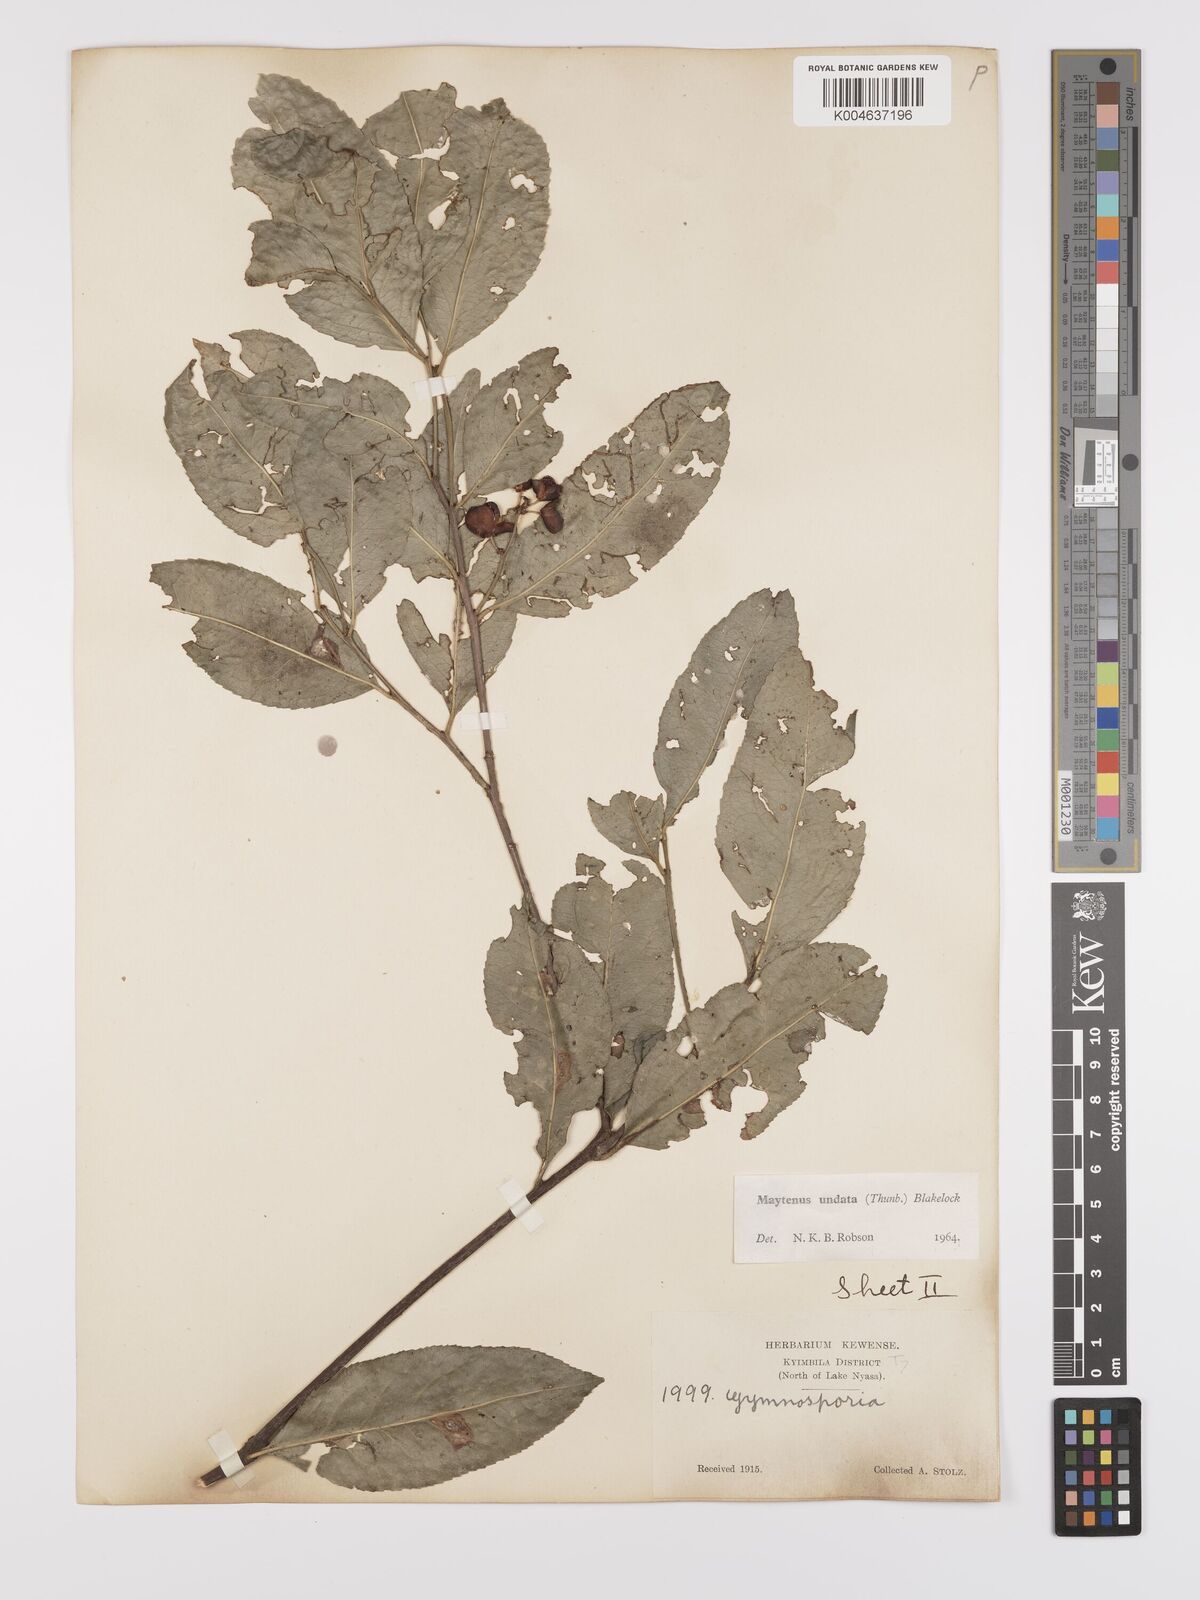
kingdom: Plantae
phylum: Tracheophyta
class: Magnoliopsida
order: Celastrales
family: Celastraceae
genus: Gymnosporia
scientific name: Gymnosporia undata
